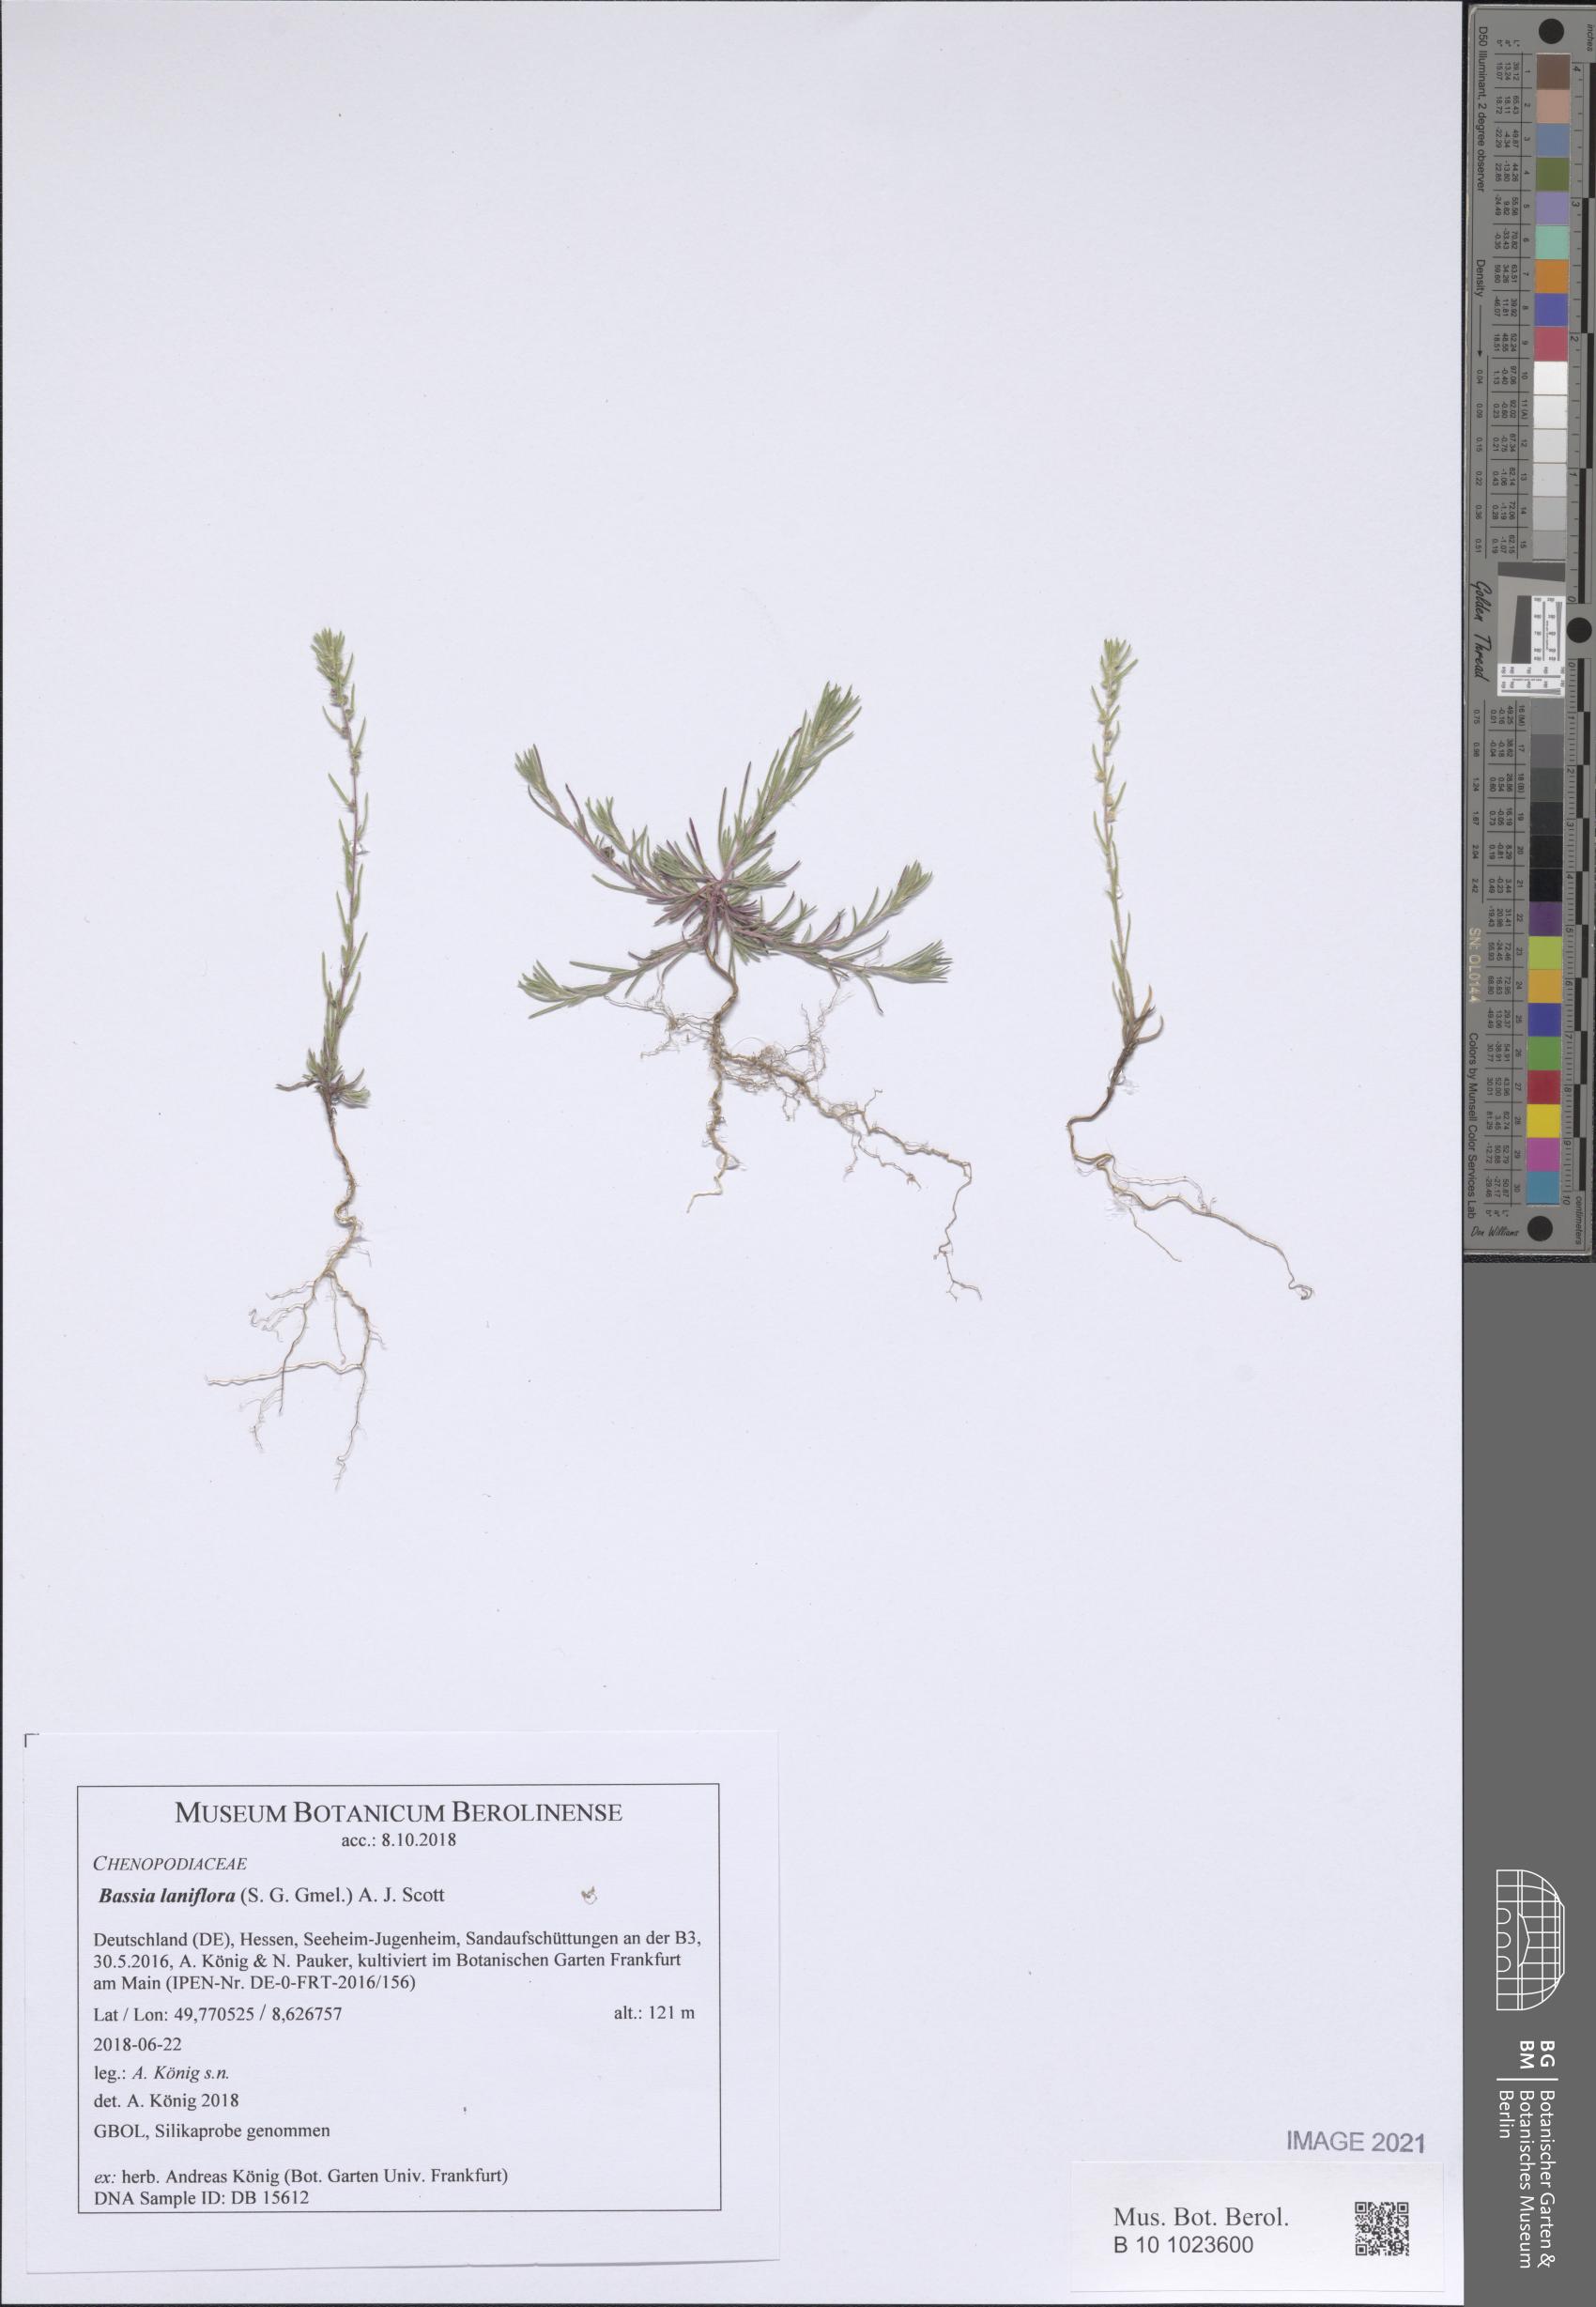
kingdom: Plantae
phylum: Tracheophyta
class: Magnoliopsida
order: Caryophyllales
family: Amaranthaceae
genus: Bassia
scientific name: Bassia laniflora
